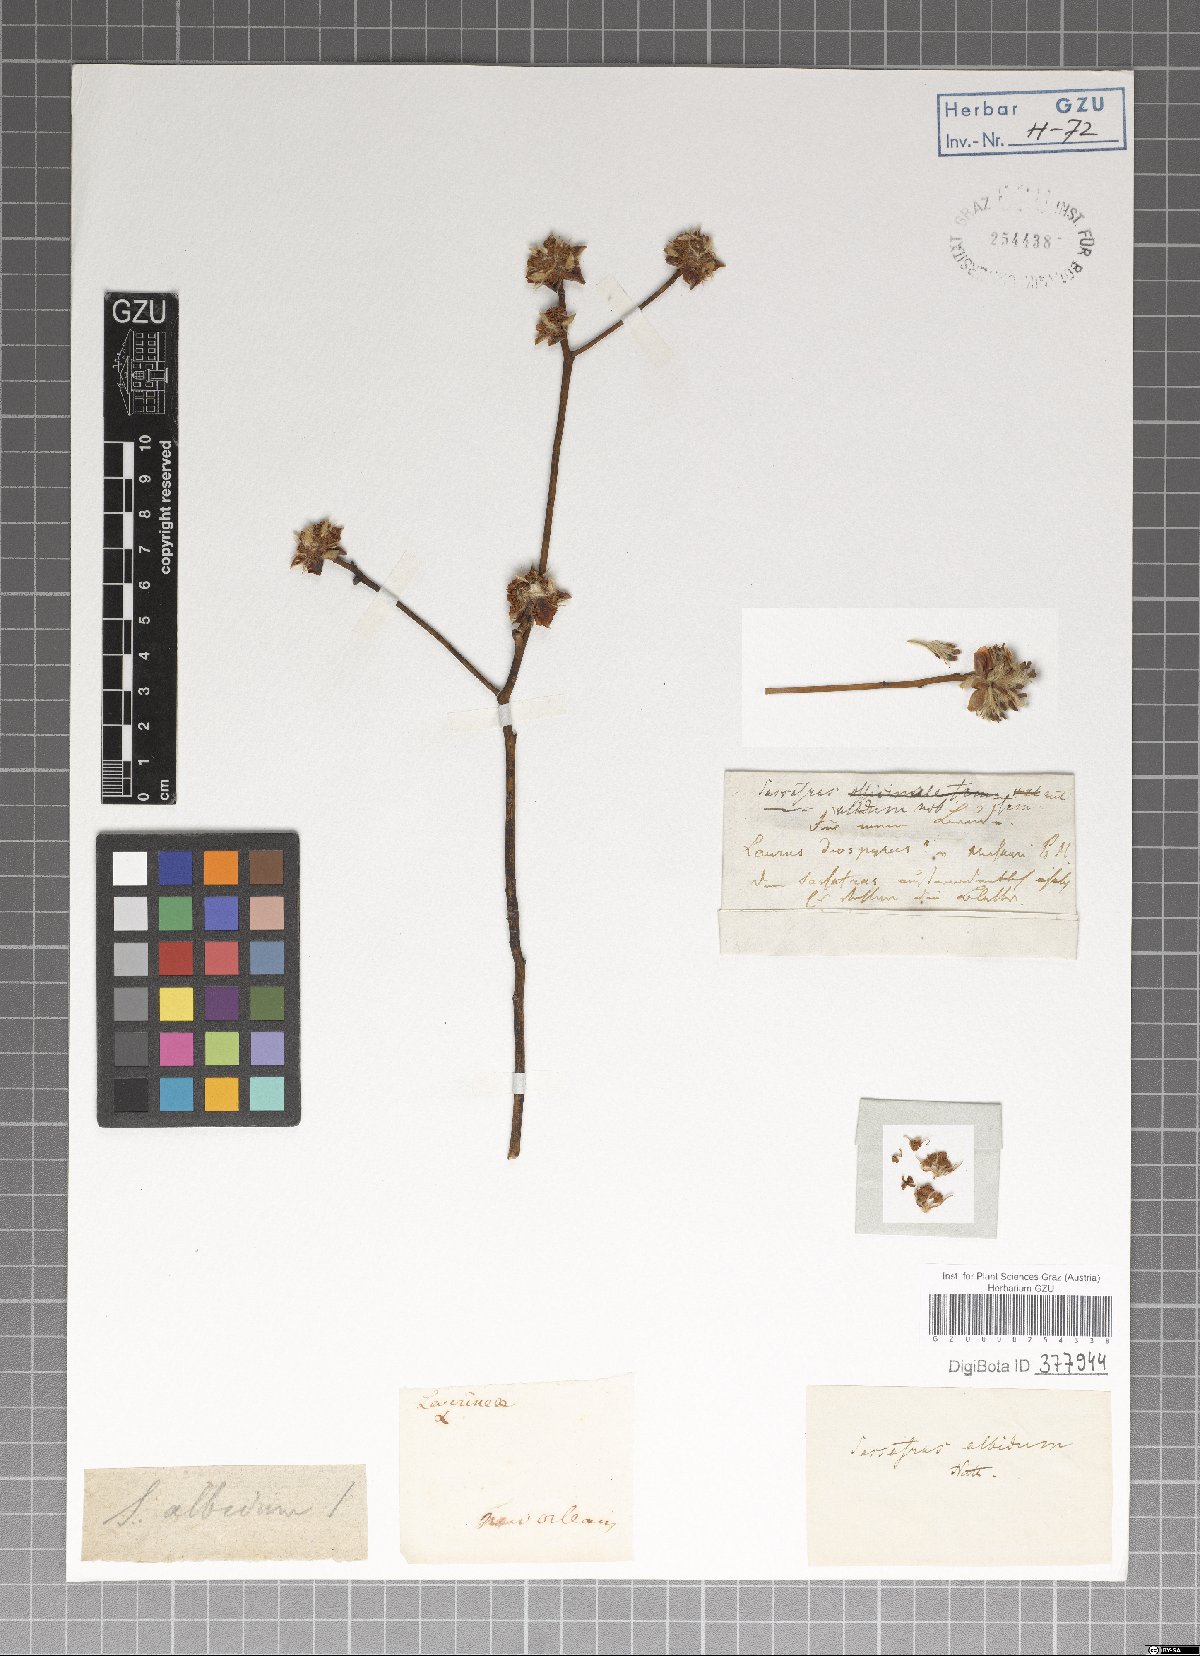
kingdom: Plantae
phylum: Tracheophyta
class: Magnoliopsida
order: Laurales
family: Lauraceae
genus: Ocotea
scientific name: Ocotea bullata
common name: Black stinkwood
